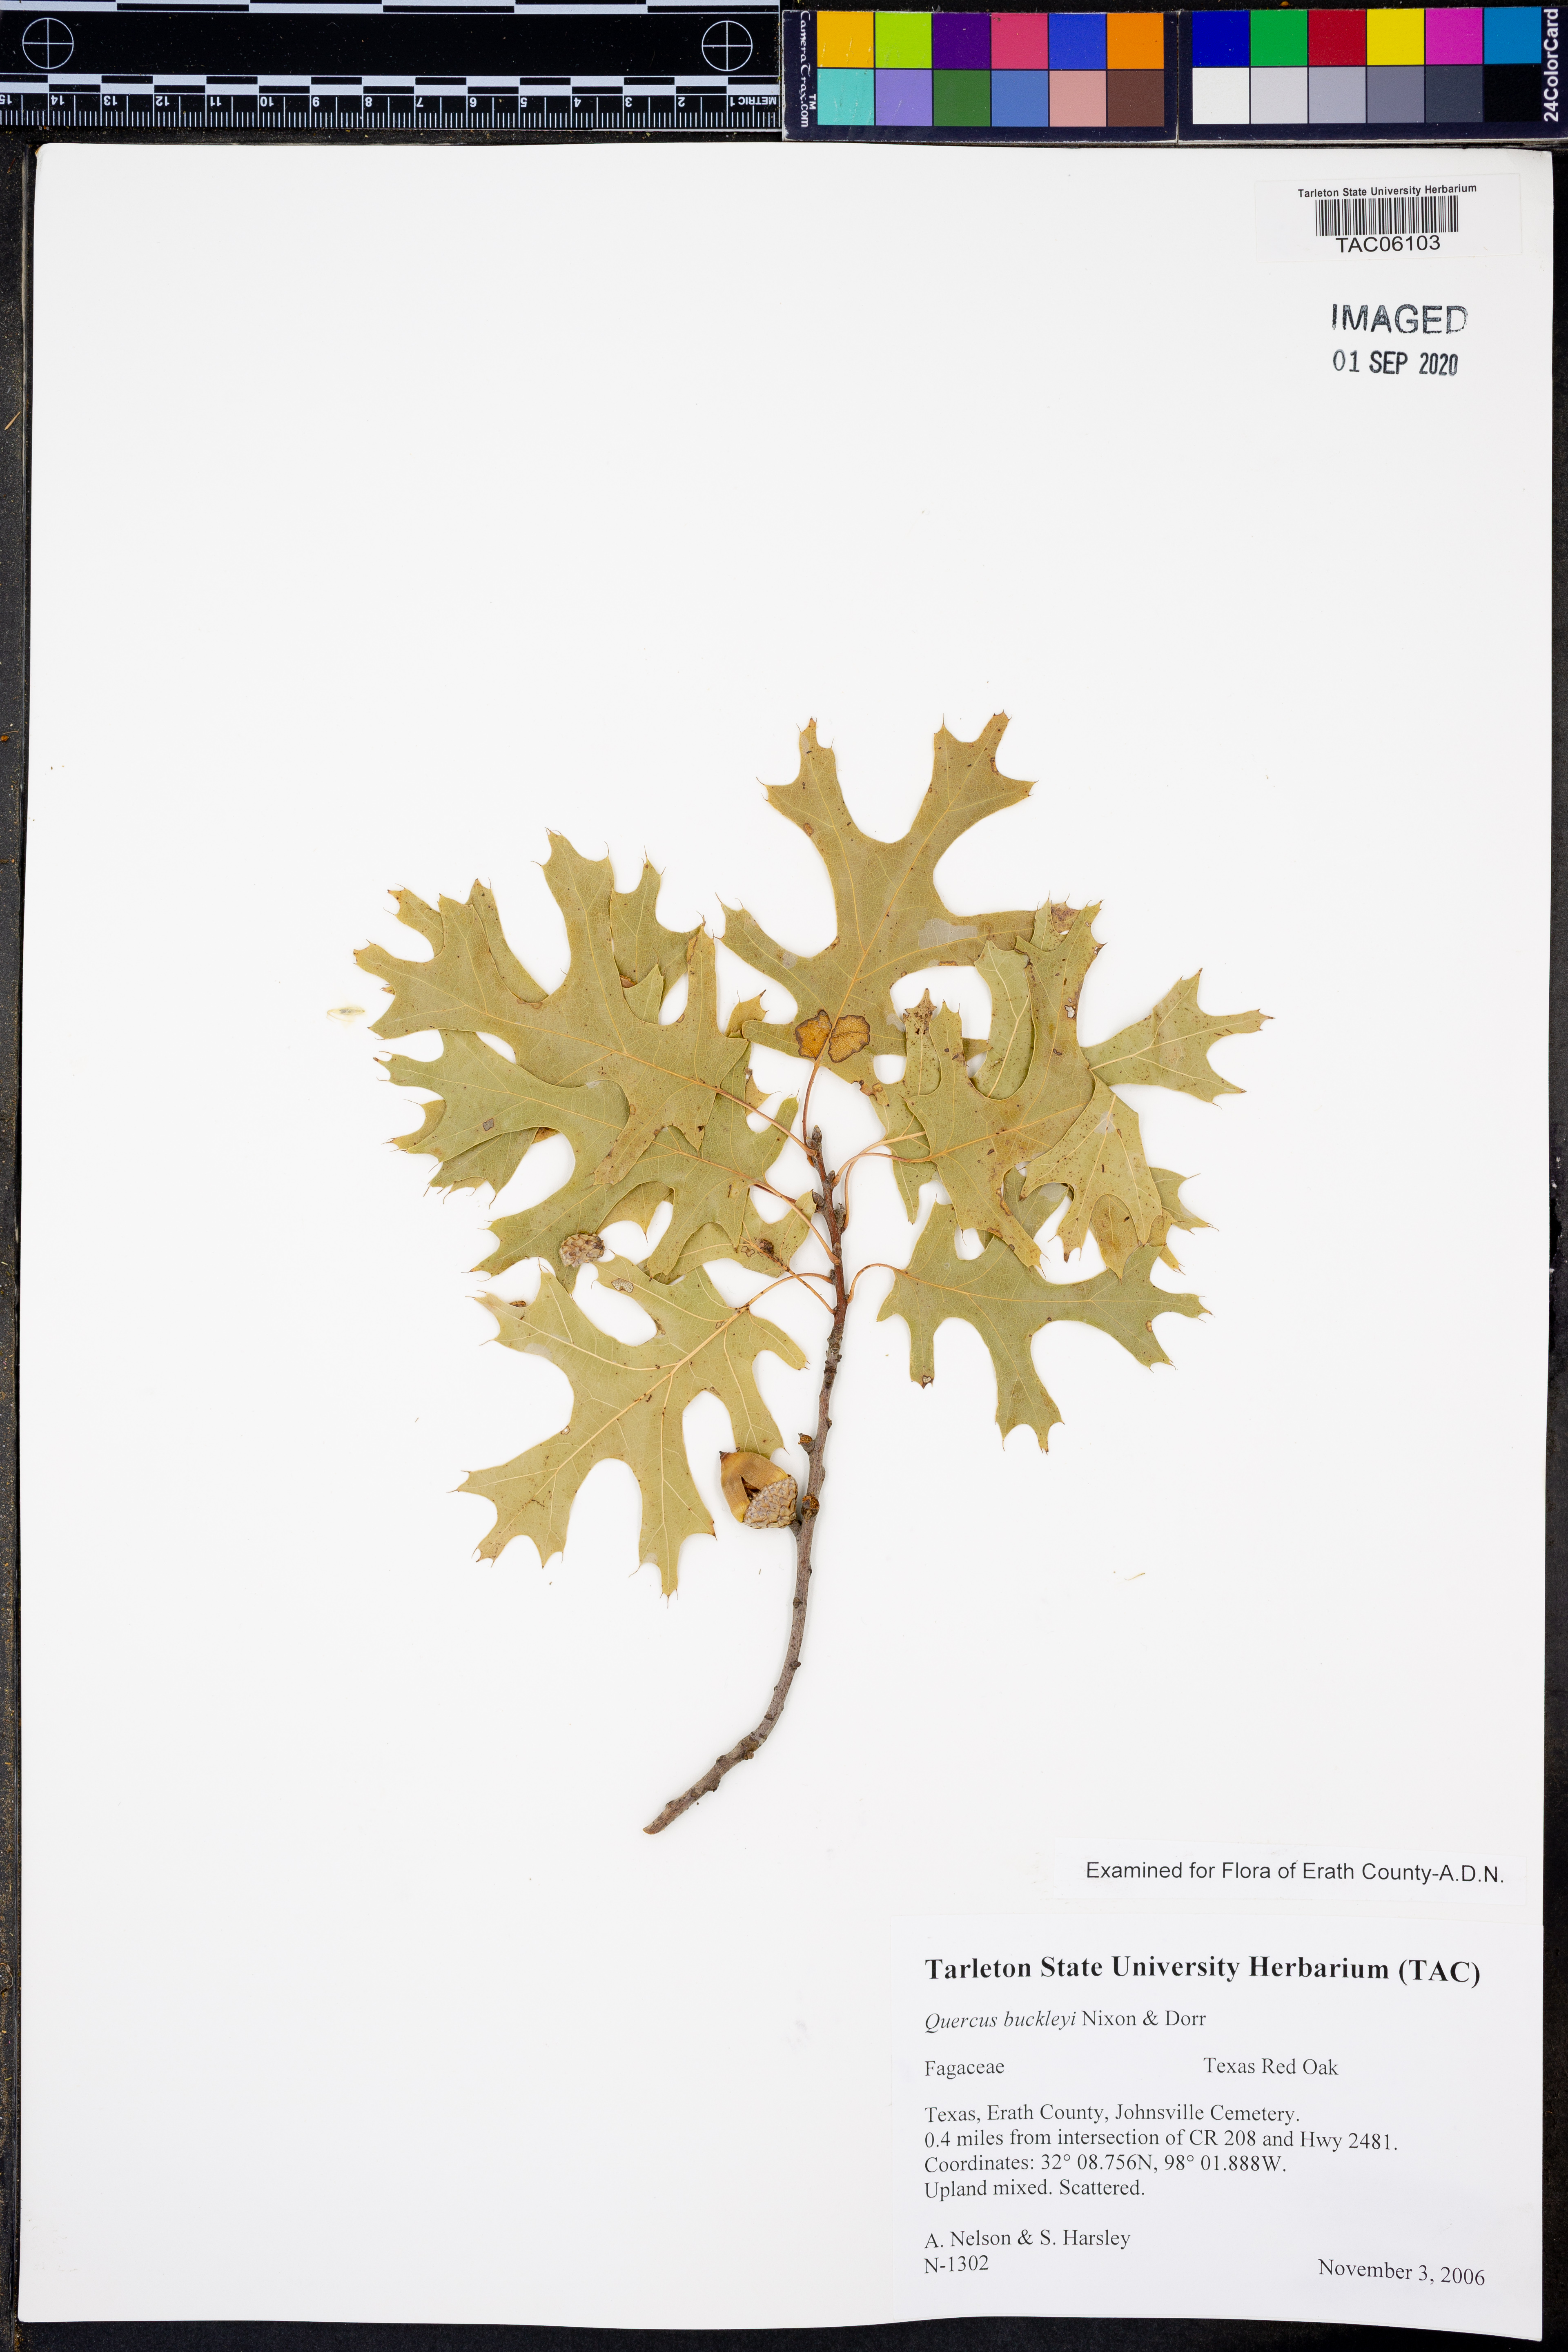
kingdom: Plantae
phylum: Tracheophyta
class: Magnoliopsida
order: Fagales
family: Fagaceae
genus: Quercus
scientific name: Quercus buckleyi
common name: Buckley oak
